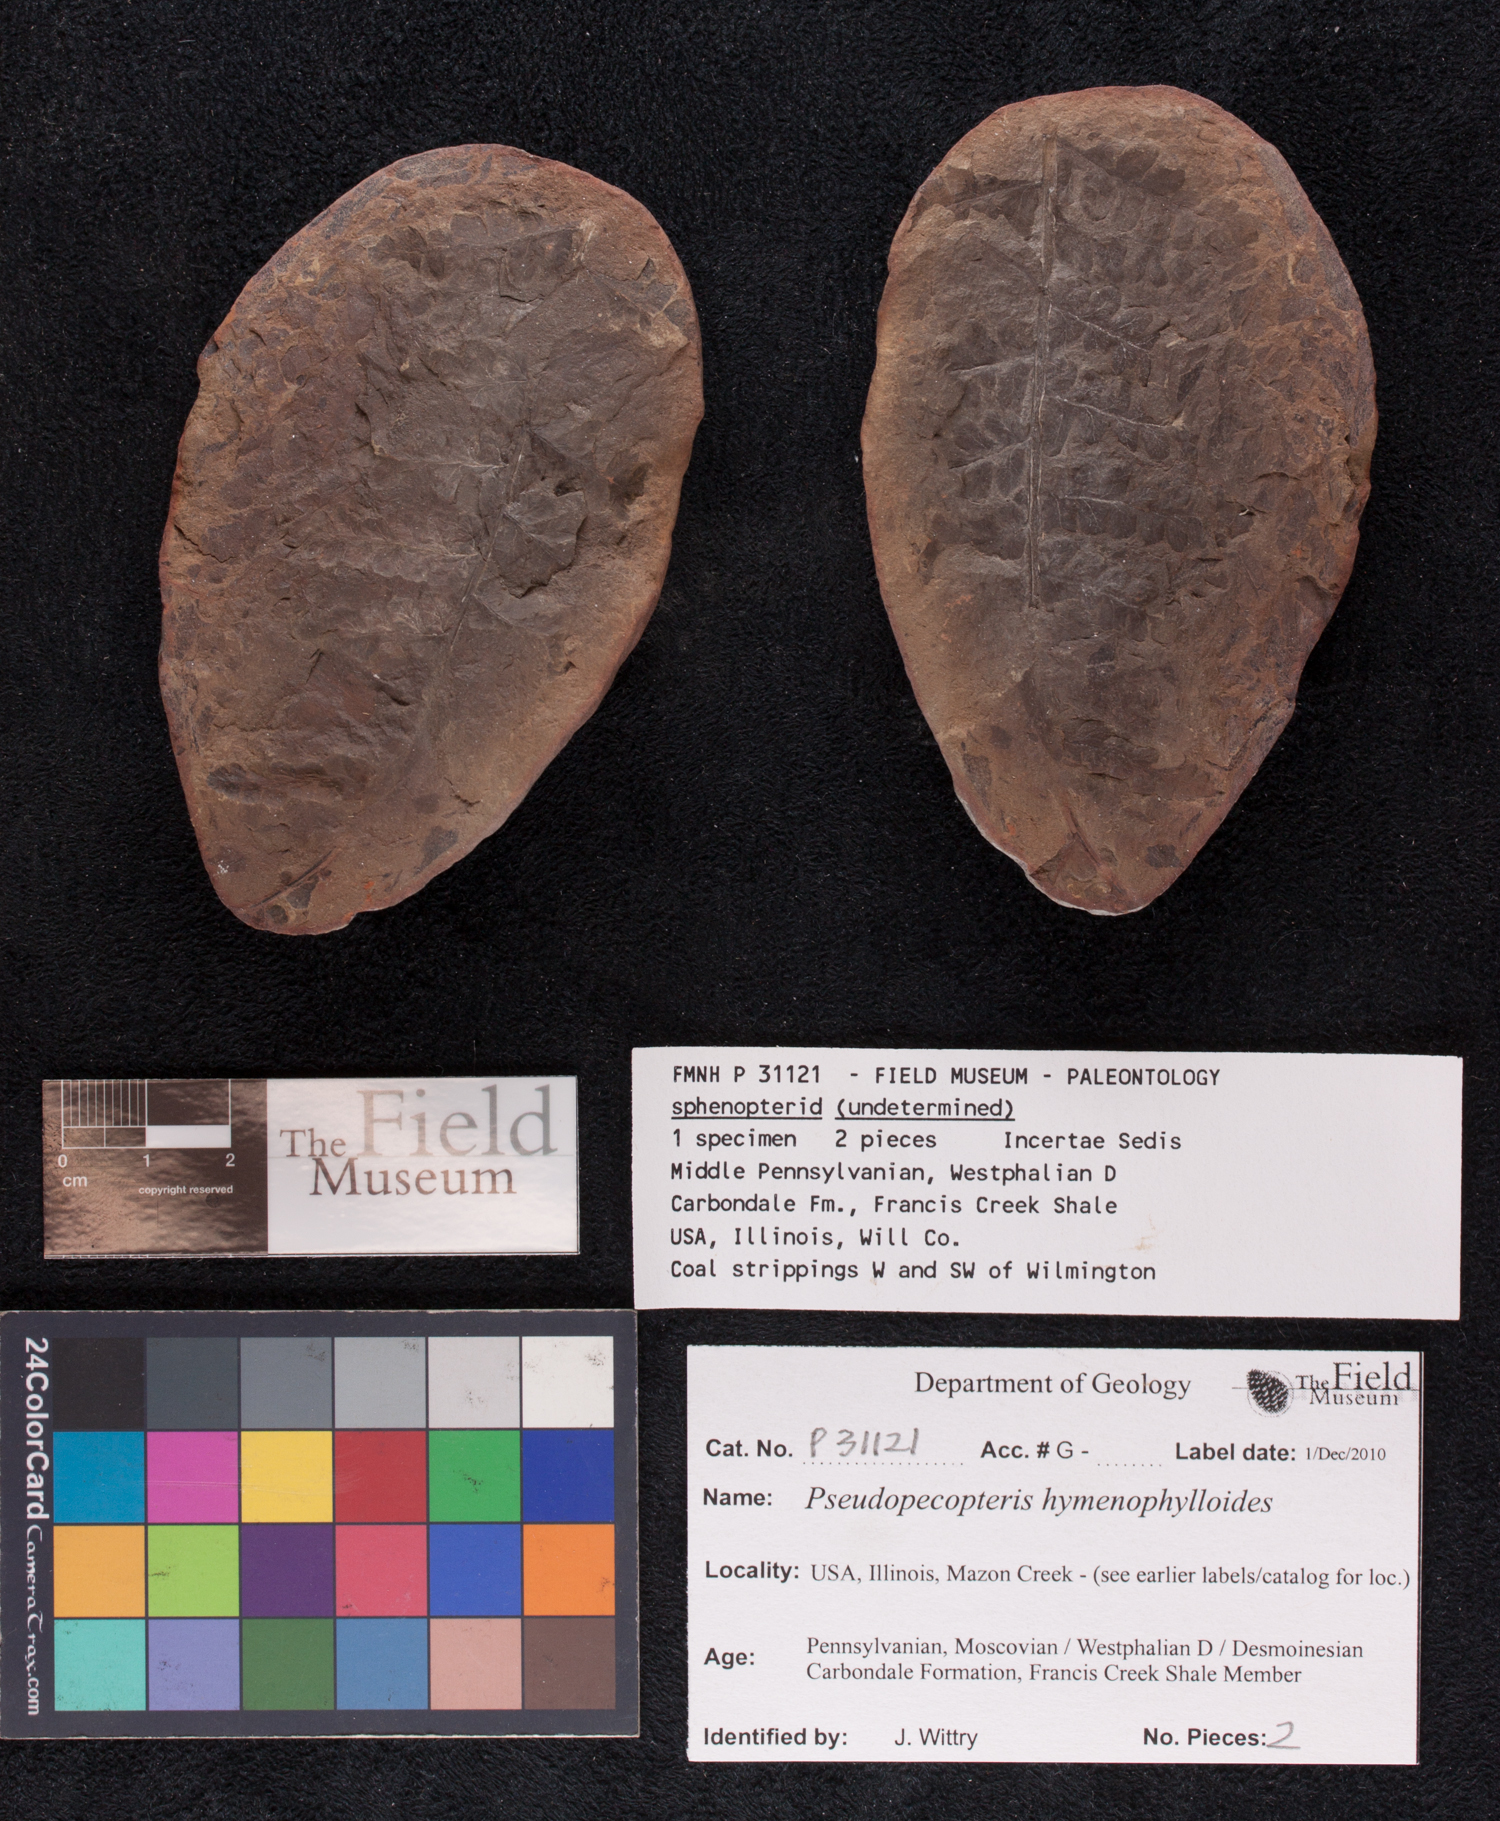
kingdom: Plantae
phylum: Tracheophyta
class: Polypodiopsida
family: Stauropteridaceae
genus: Crossotheca
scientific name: Crossotheca
